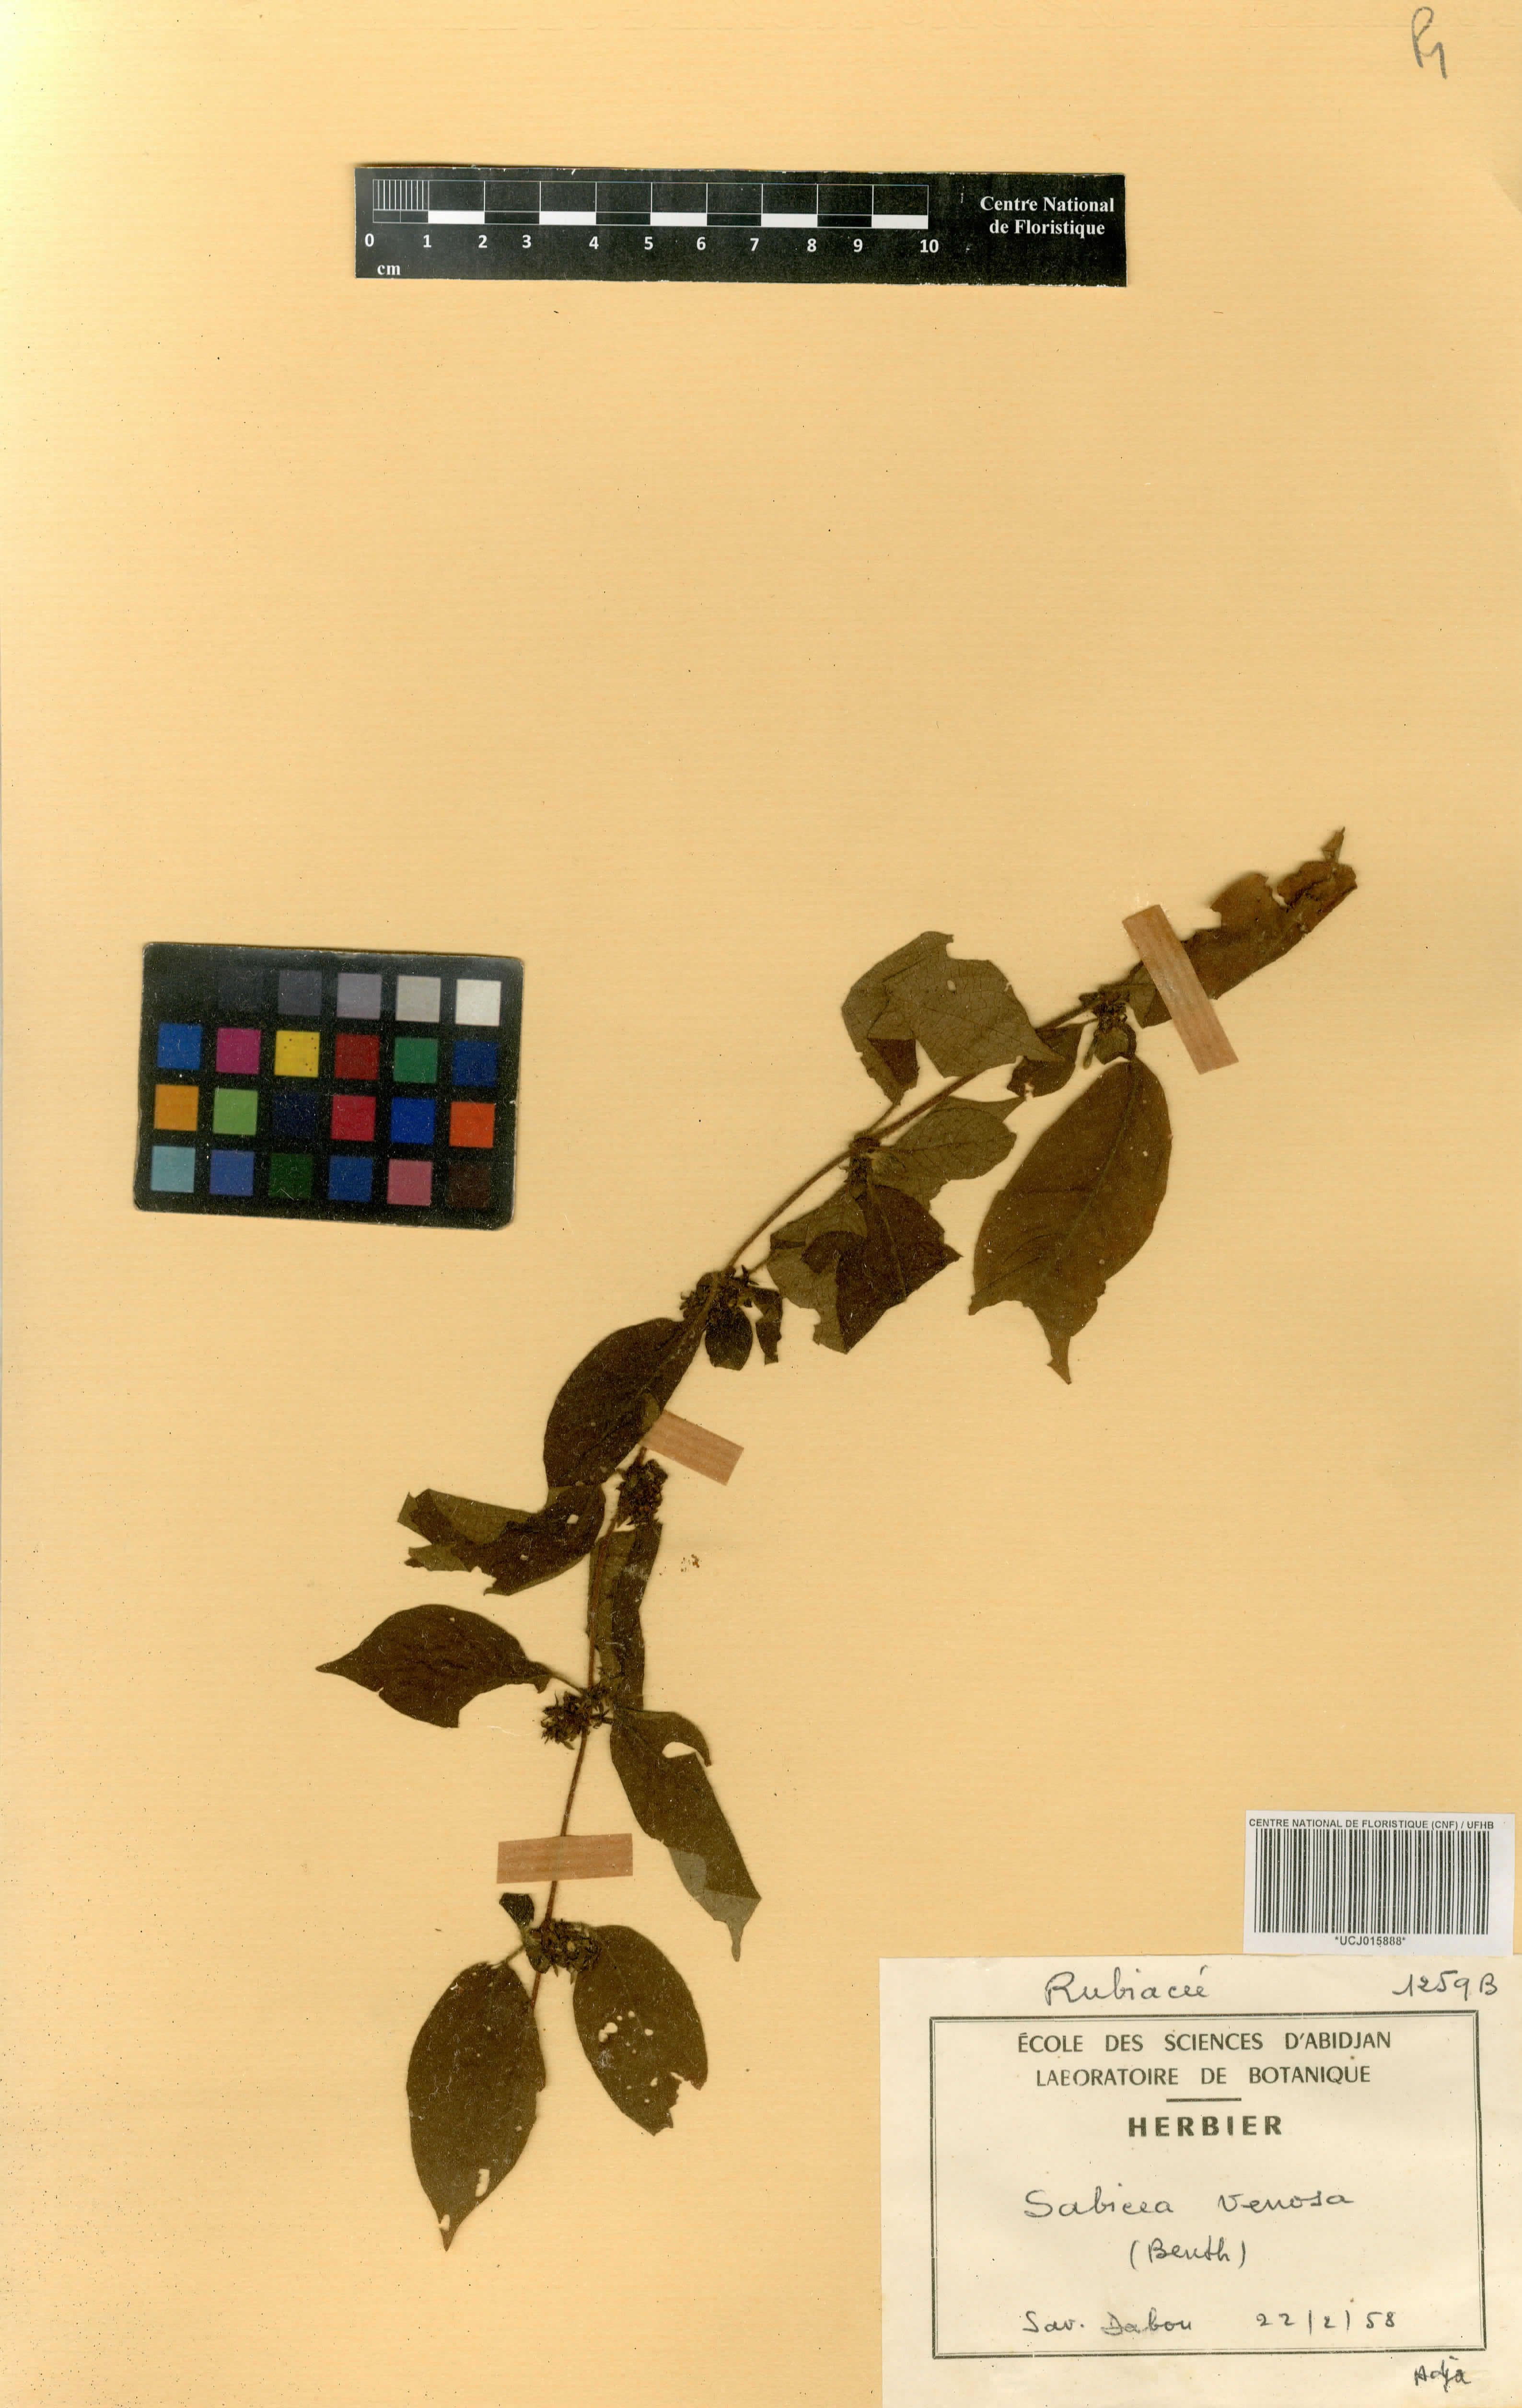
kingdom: Plantae
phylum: Tracheophyta
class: Magnoliopsida
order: Gentianales
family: Rubiaceae
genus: Sabicea
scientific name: Sabicea venosa
